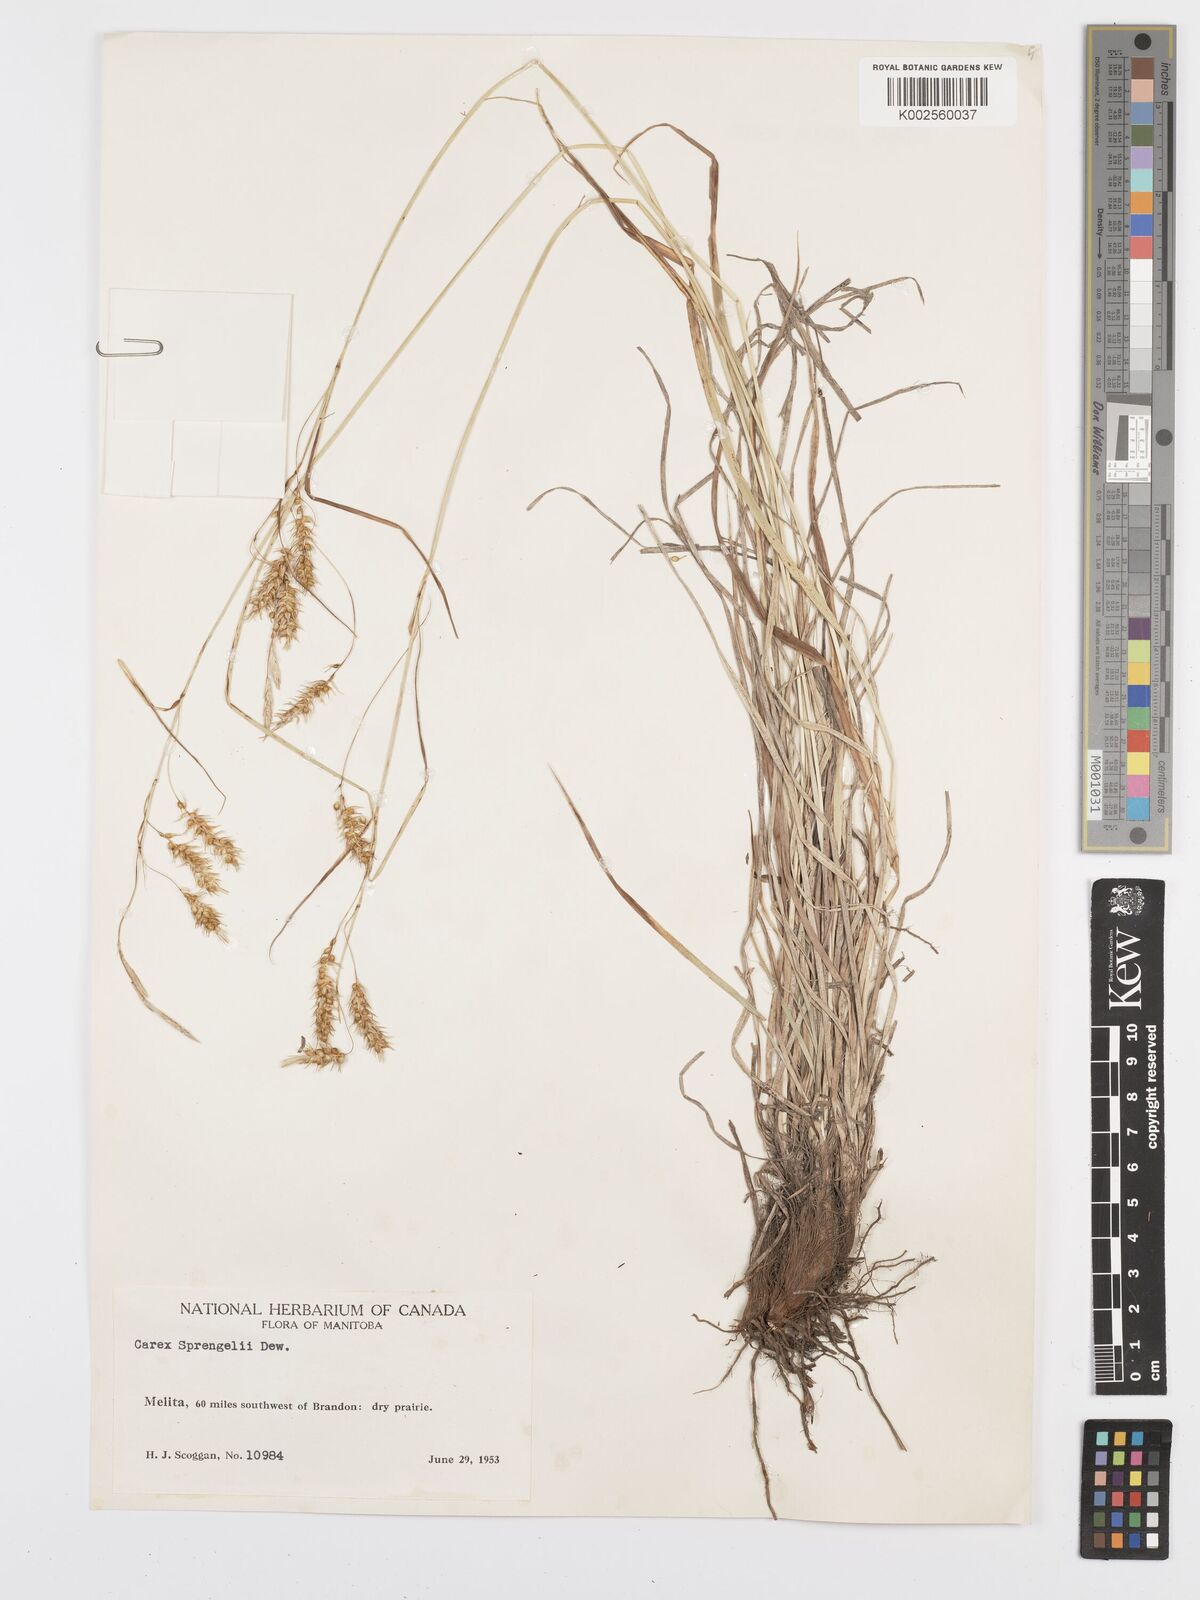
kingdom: Plantae
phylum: Tracheophyta
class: Liliopsida
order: Poales
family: Cyperaceae
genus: Carex
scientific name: Carex sprengelii
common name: Long-beaked sedge
